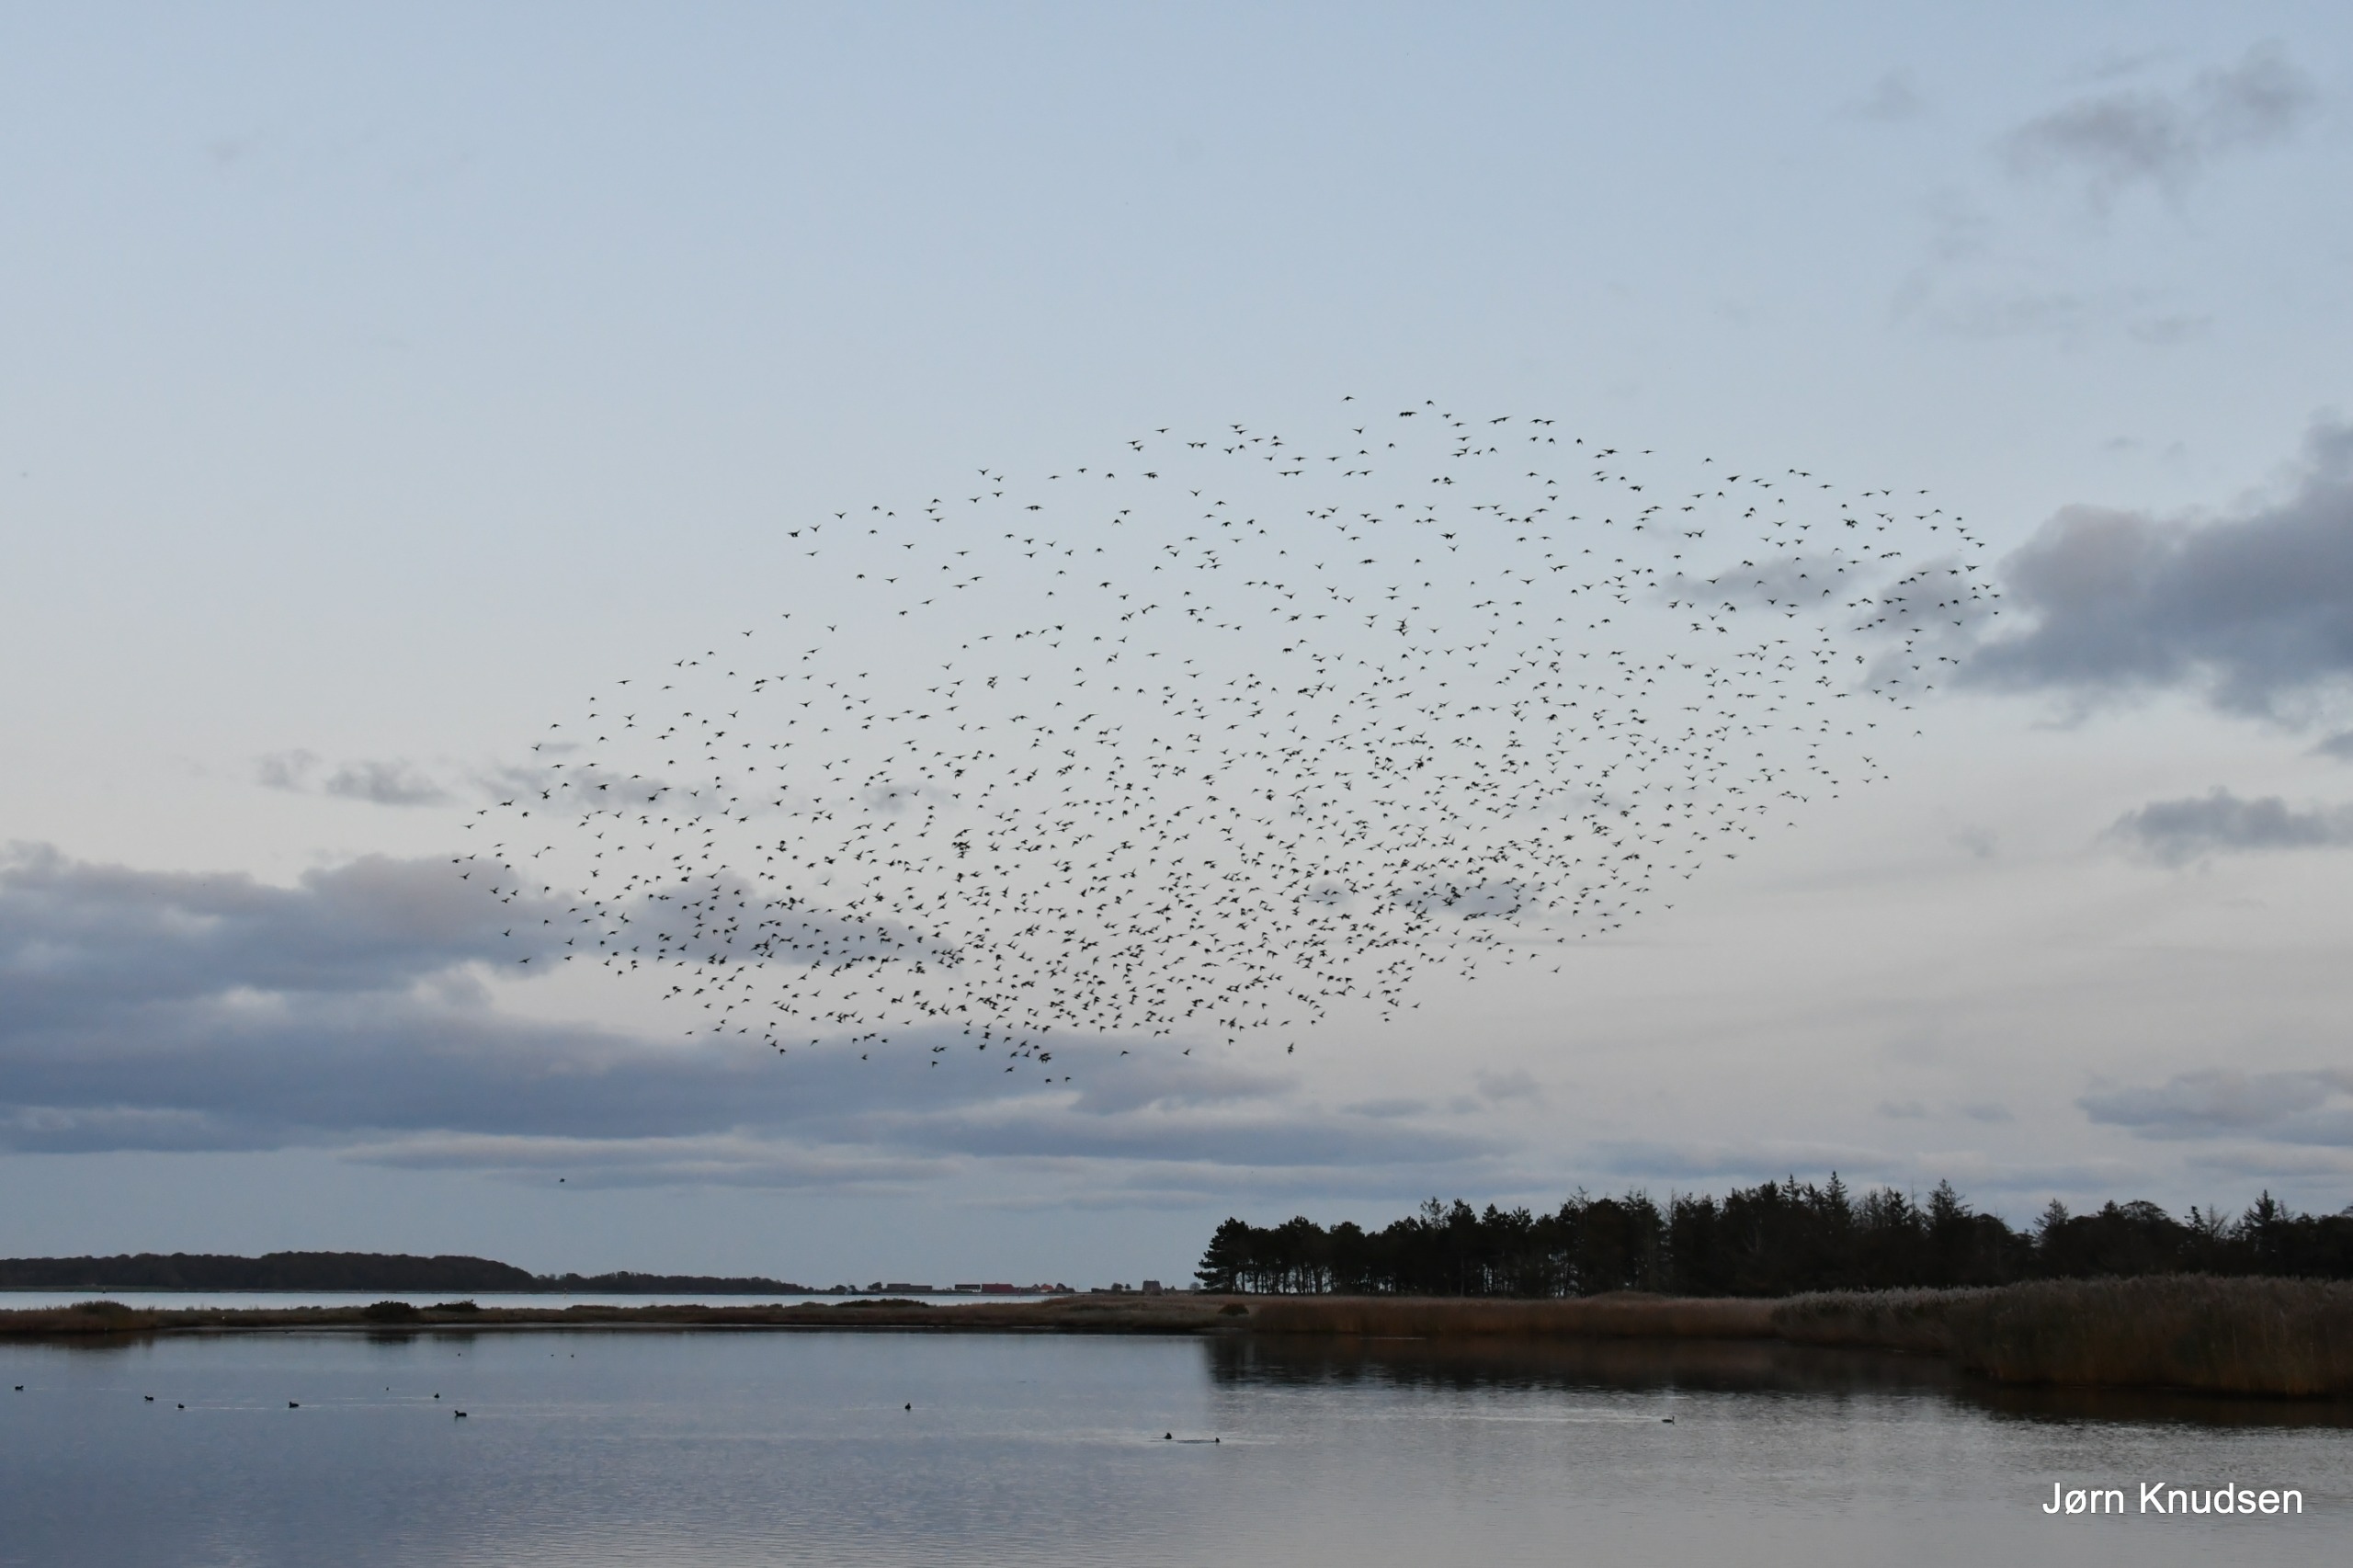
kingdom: Animalia
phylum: Chordata
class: Aves
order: Passeriformes
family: Sturnidae
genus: Sturnus
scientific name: Sturnus vulgaris
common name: Stær
